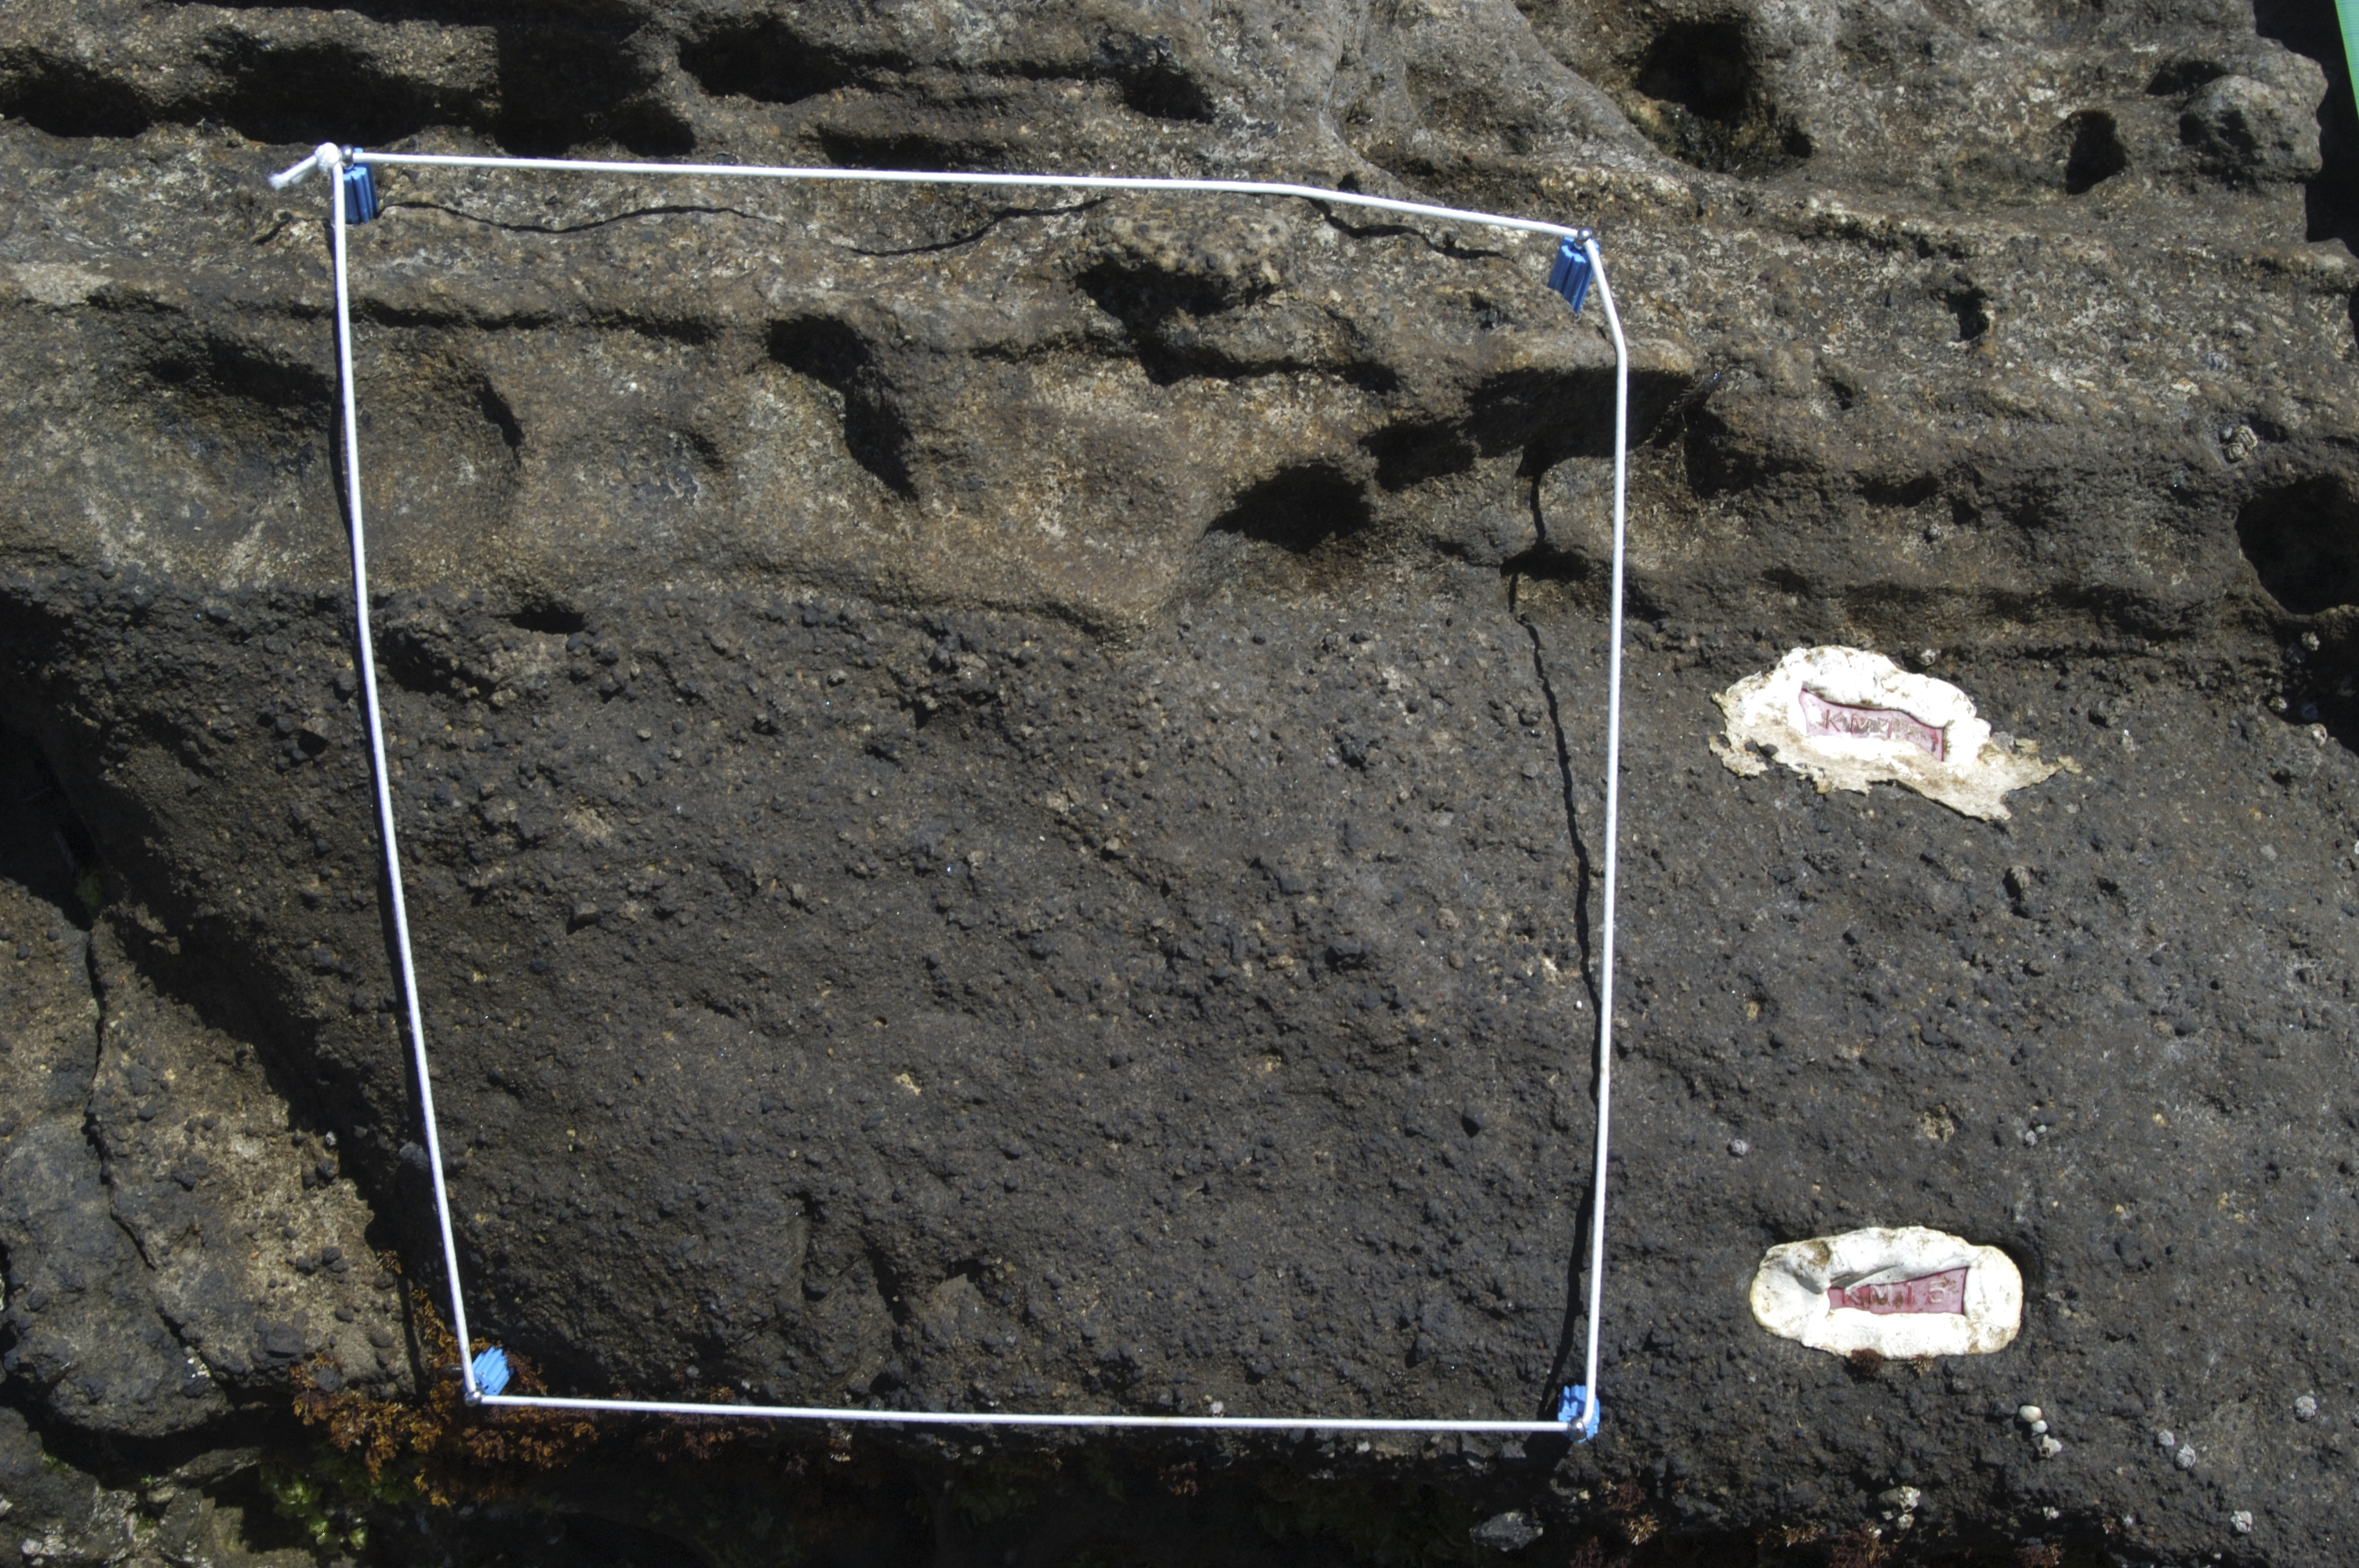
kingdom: Animalia
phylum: Arthropoda
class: Maxillopoda
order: Sessilia
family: Chthamalidae
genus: Chthamalus
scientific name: Chthamalus challengeri
